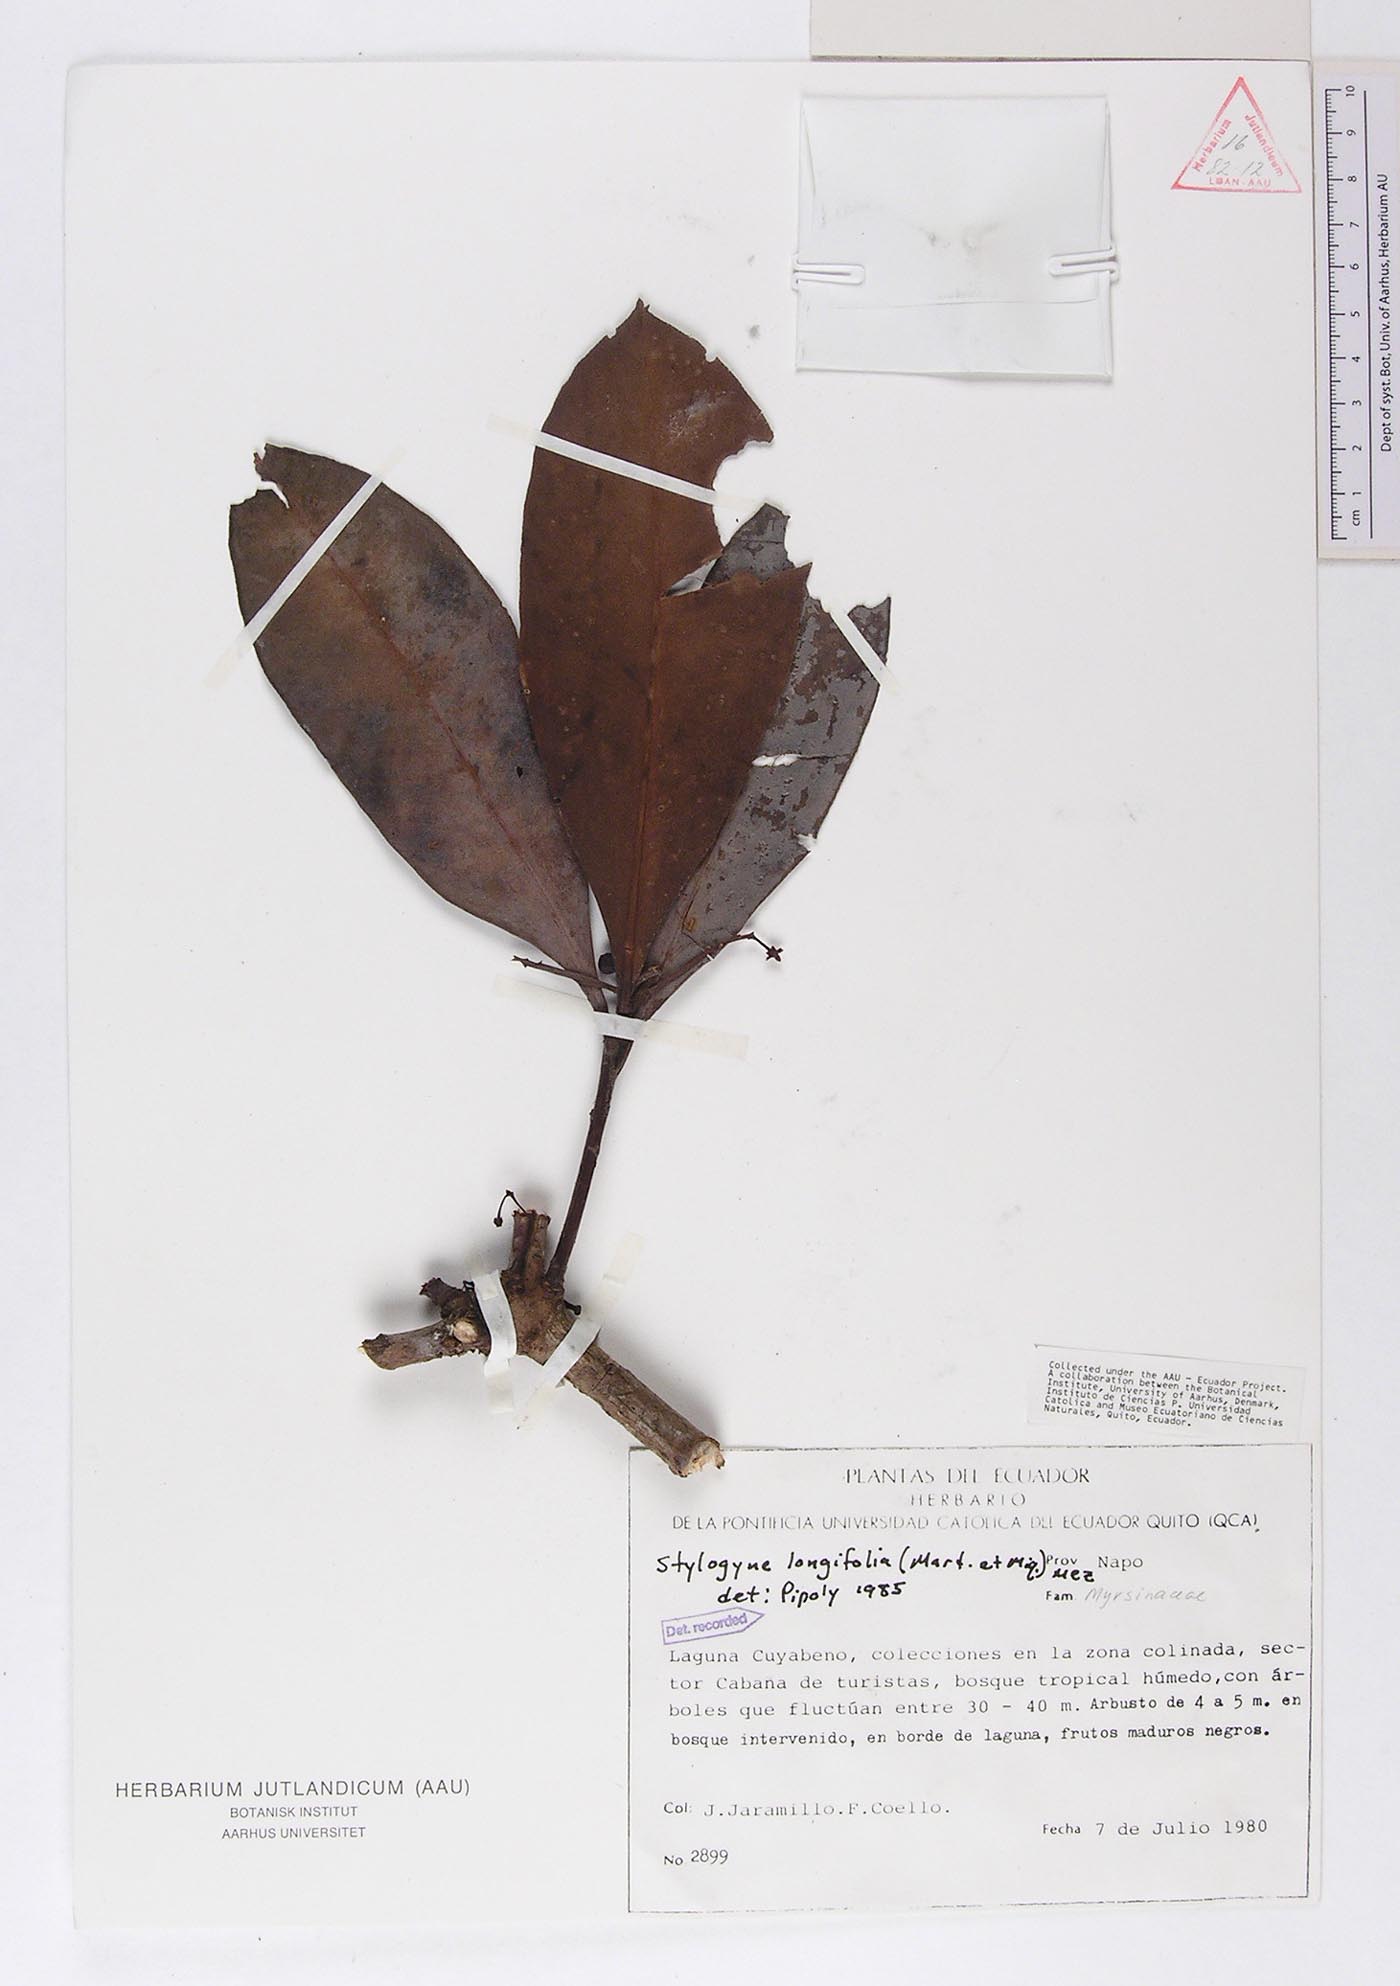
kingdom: Plantae
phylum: Tracheophyta
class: Magnoliopsida
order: Ericales
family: Primulaceae
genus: Stylogyne
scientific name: Stylogyne longifolia
